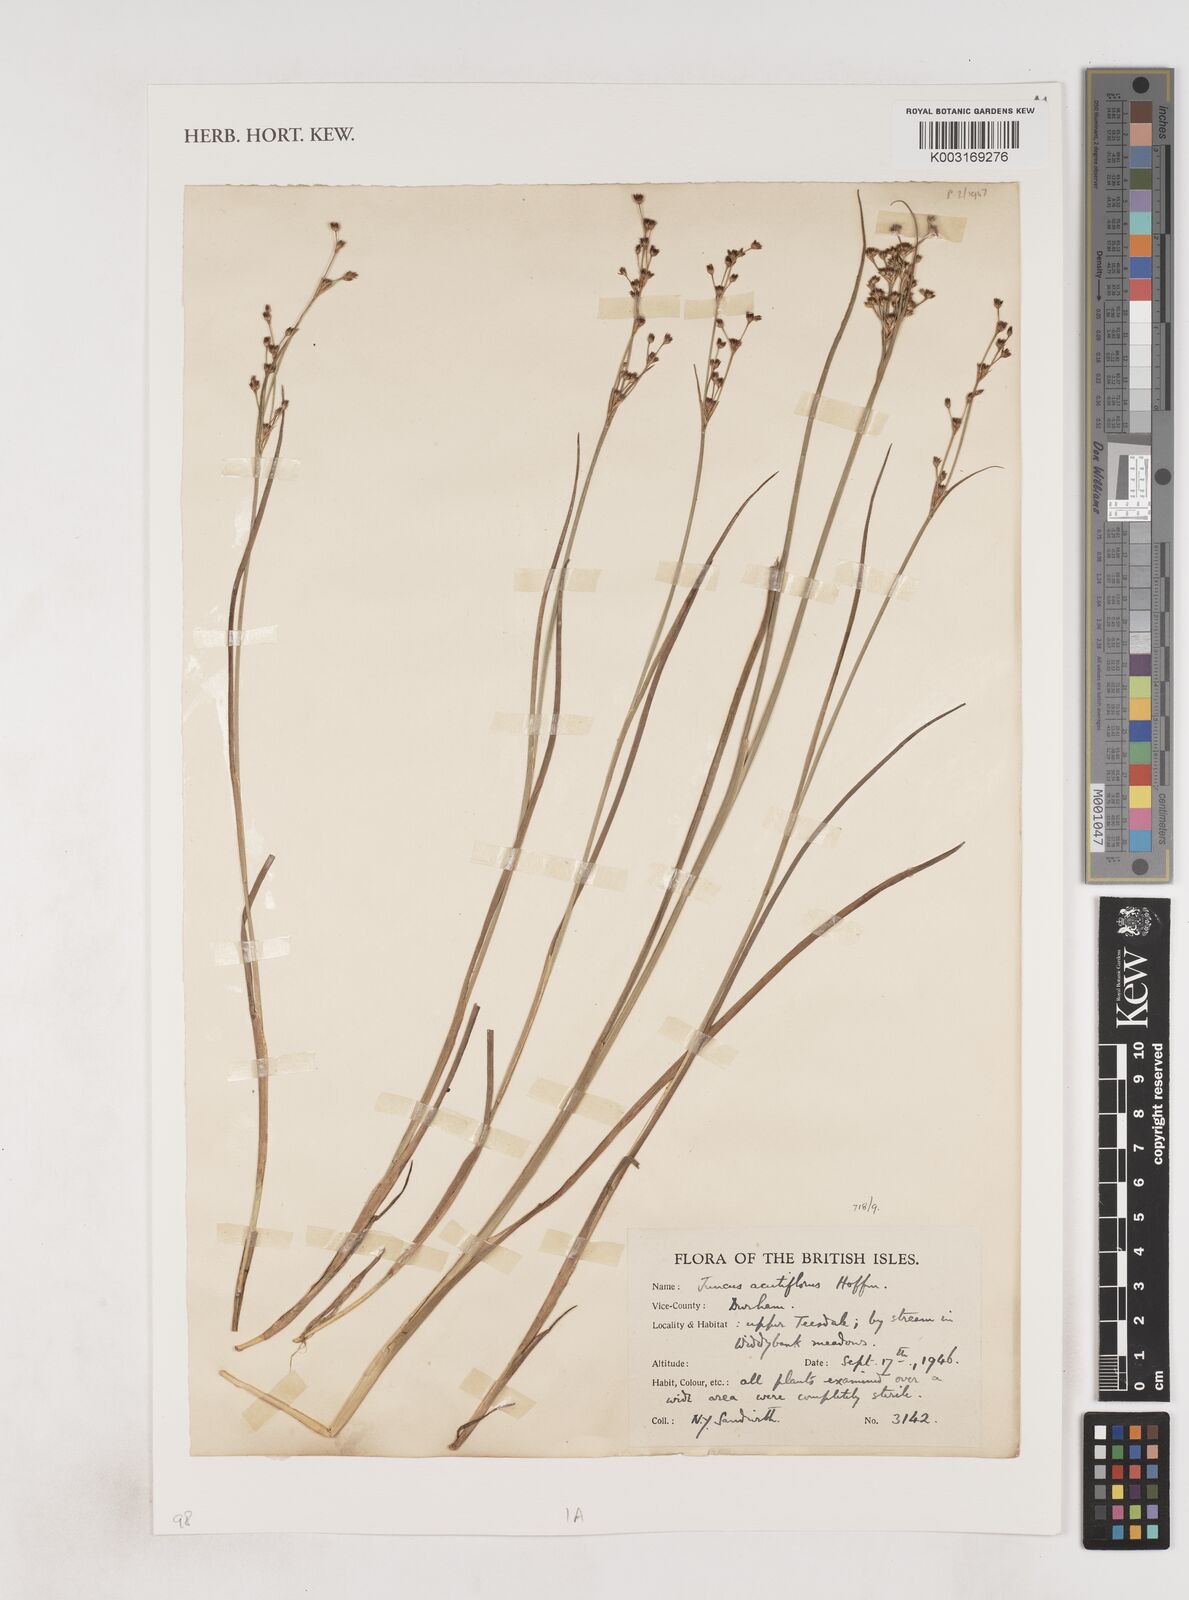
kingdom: Plantae
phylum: Tracheophyta
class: Liliopsida
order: Poales
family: Juncaceae
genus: Juncus
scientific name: Juncus acutiflorus
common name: Sharp-flowered rush
